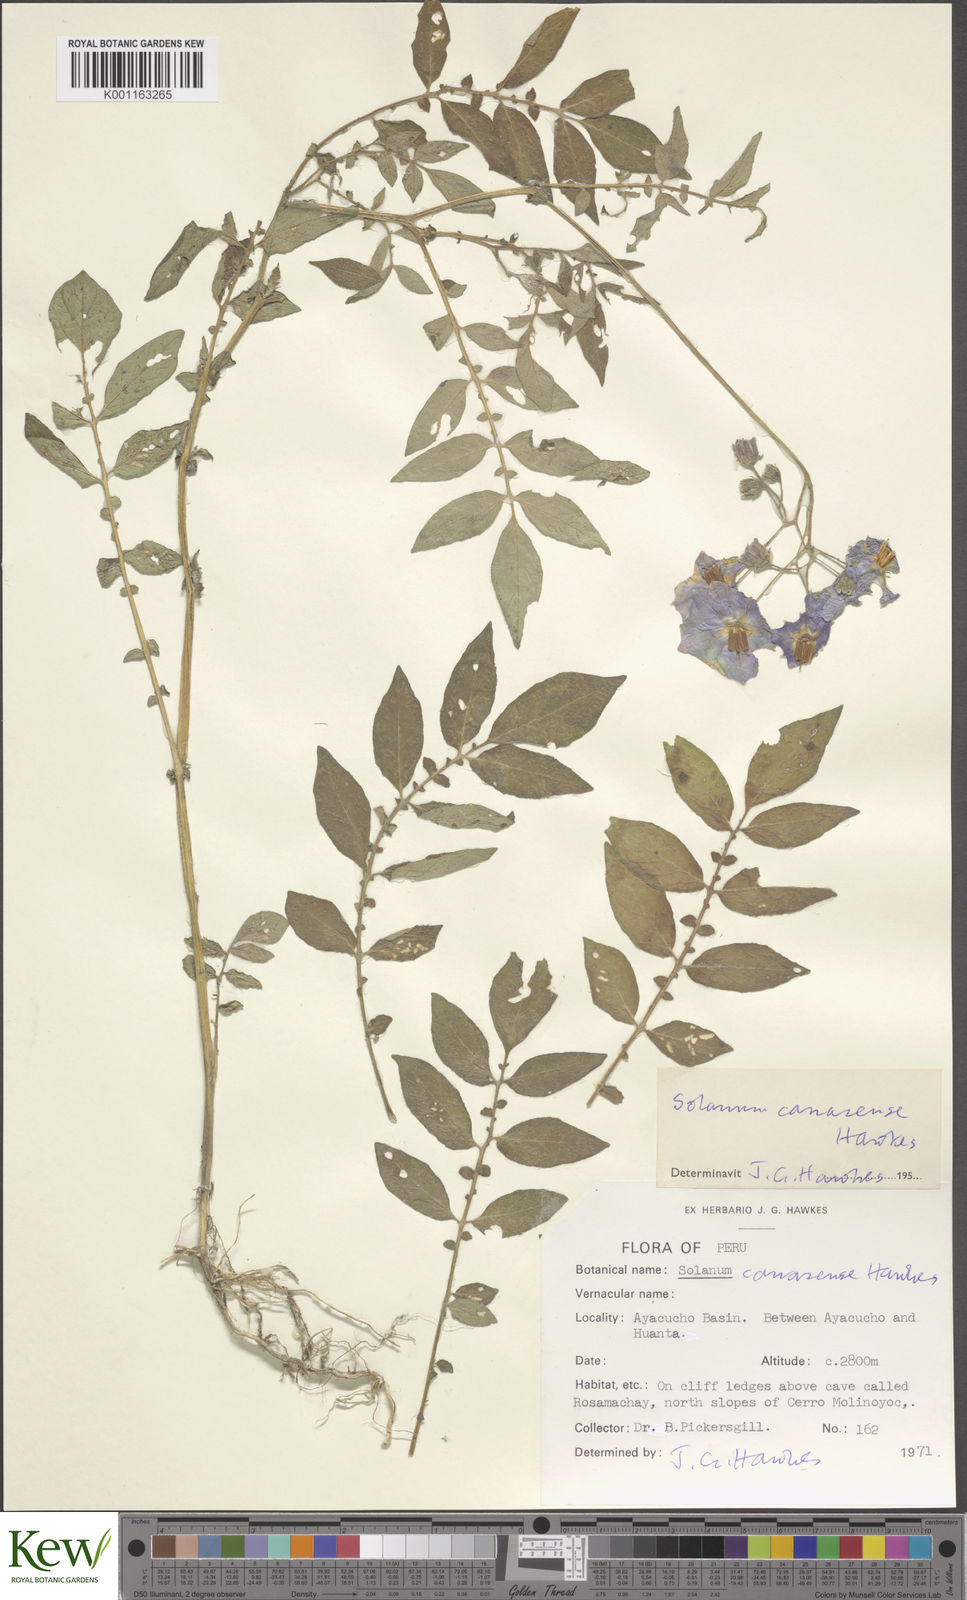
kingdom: Plantae
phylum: Tracheophyta
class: Magnoliopsida
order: Solanales
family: Solanaceae
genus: Solanum
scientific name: Solanum candolleanum
